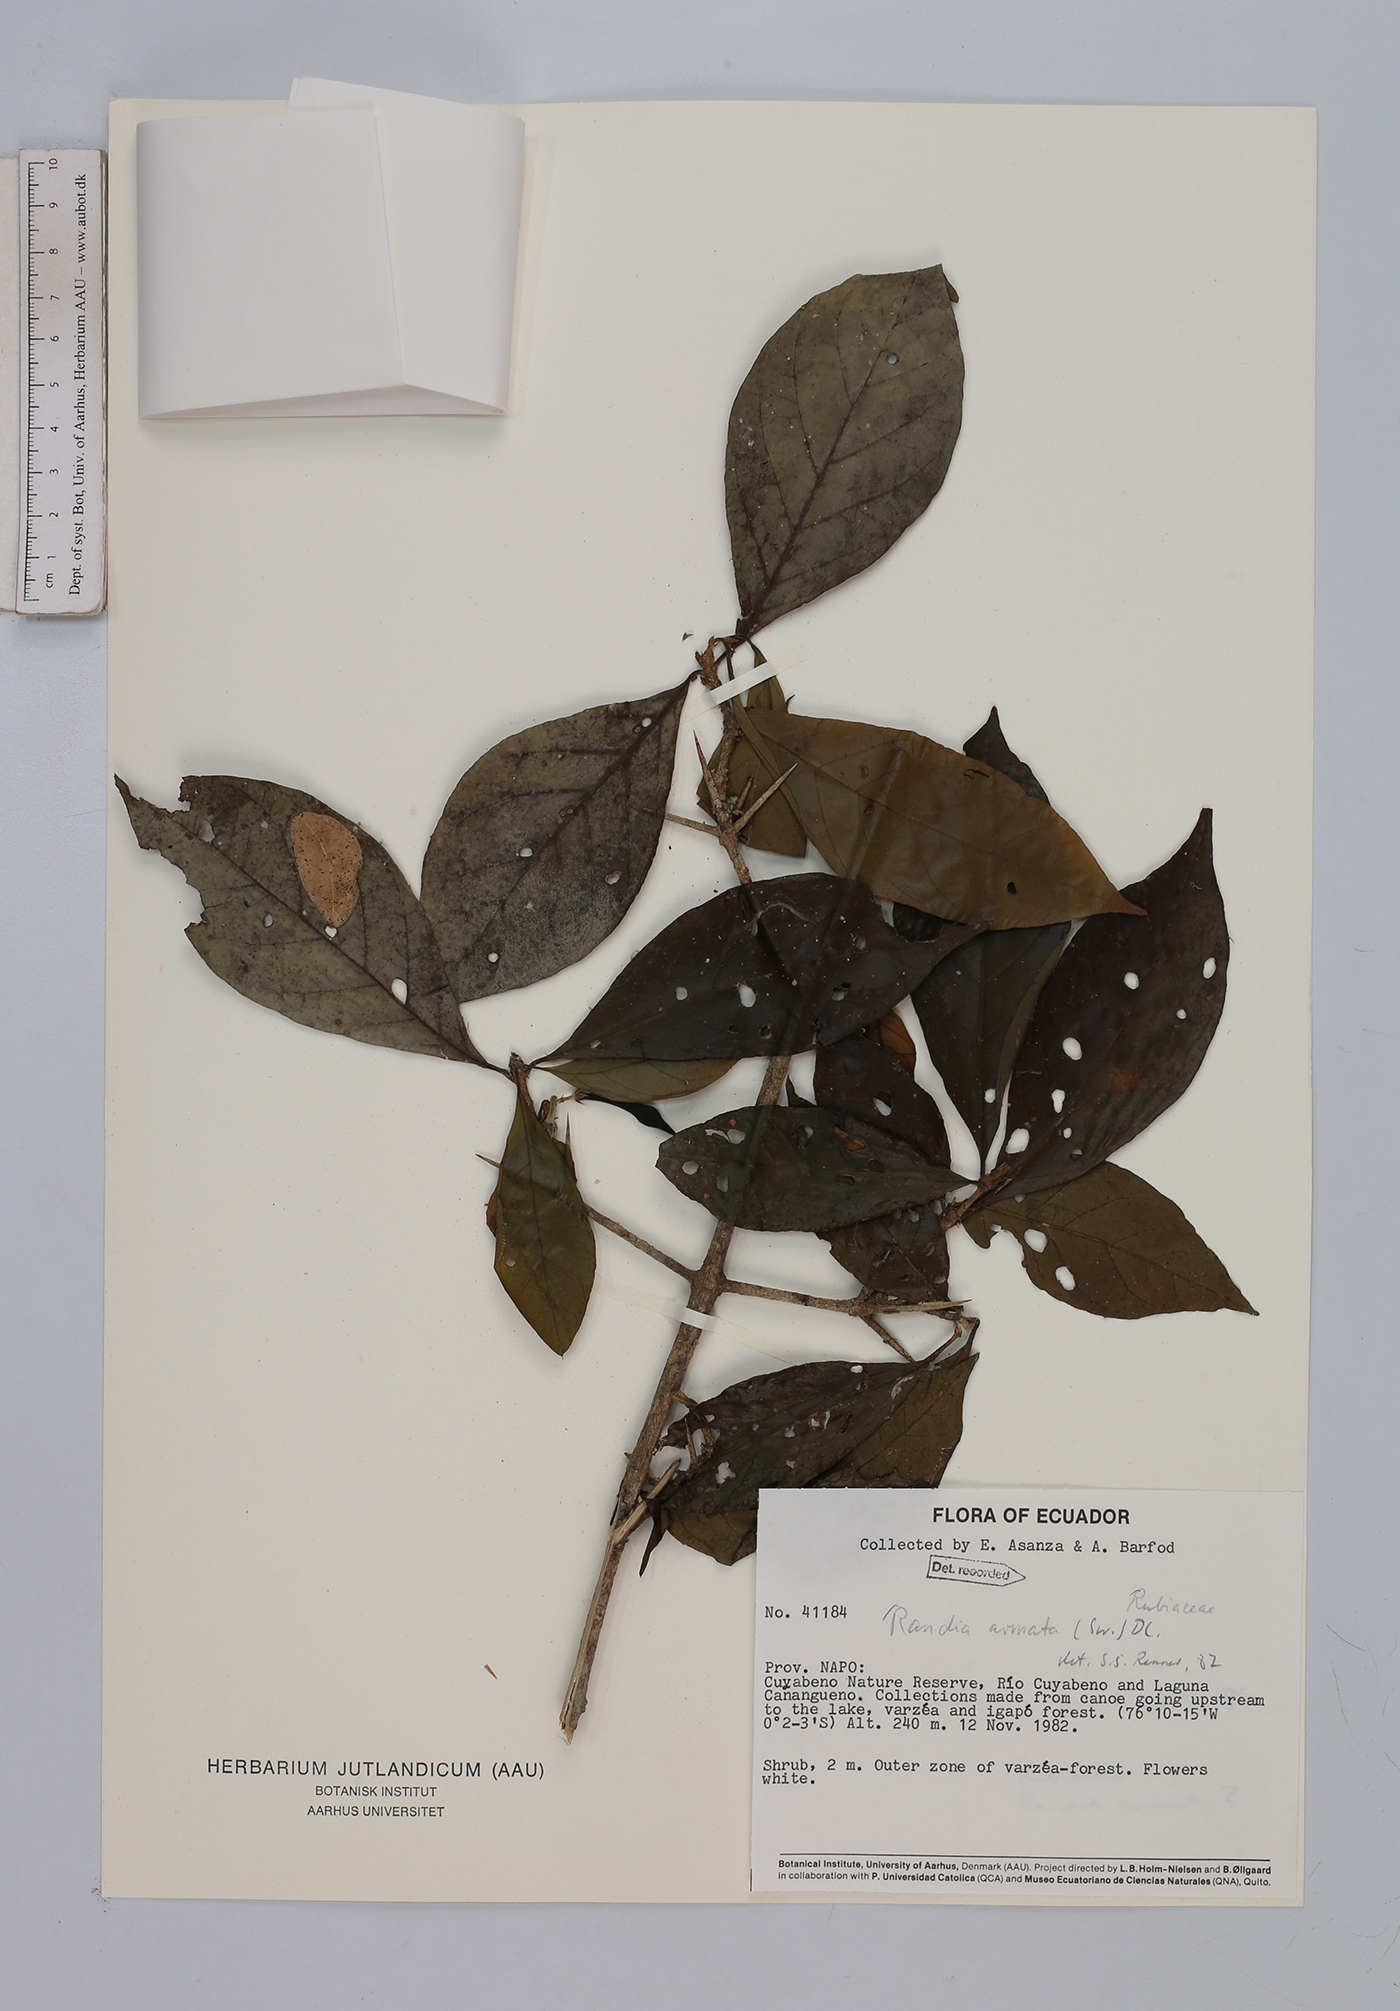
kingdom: Plantae
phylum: Tracheophyta
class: Magnoliopsida
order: Gentianales
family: Rubiaceae
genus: Randia
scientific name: Randia armata
